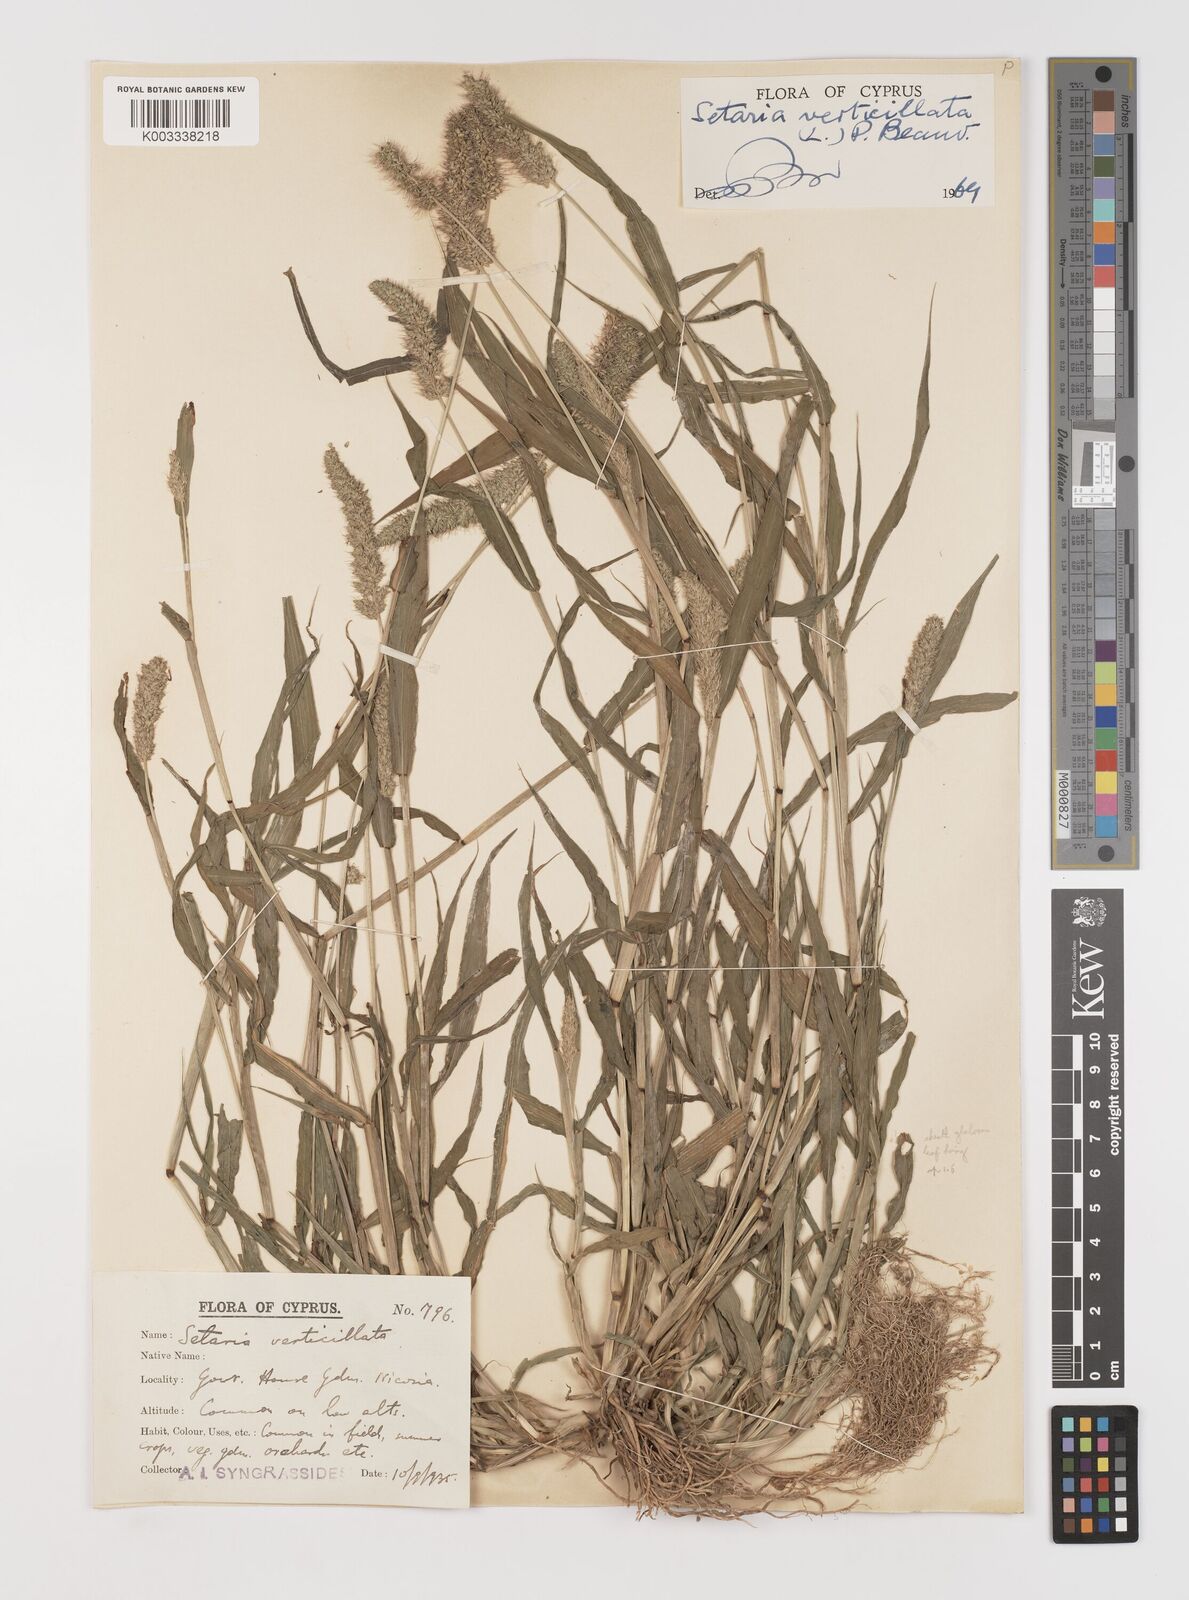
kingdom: Plantae
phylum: Tracheophyta
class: Liliopsida
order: Poales
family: Poaceae
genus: Setaria
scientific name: Setaria verticillata
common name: Hooked bristlegrass
